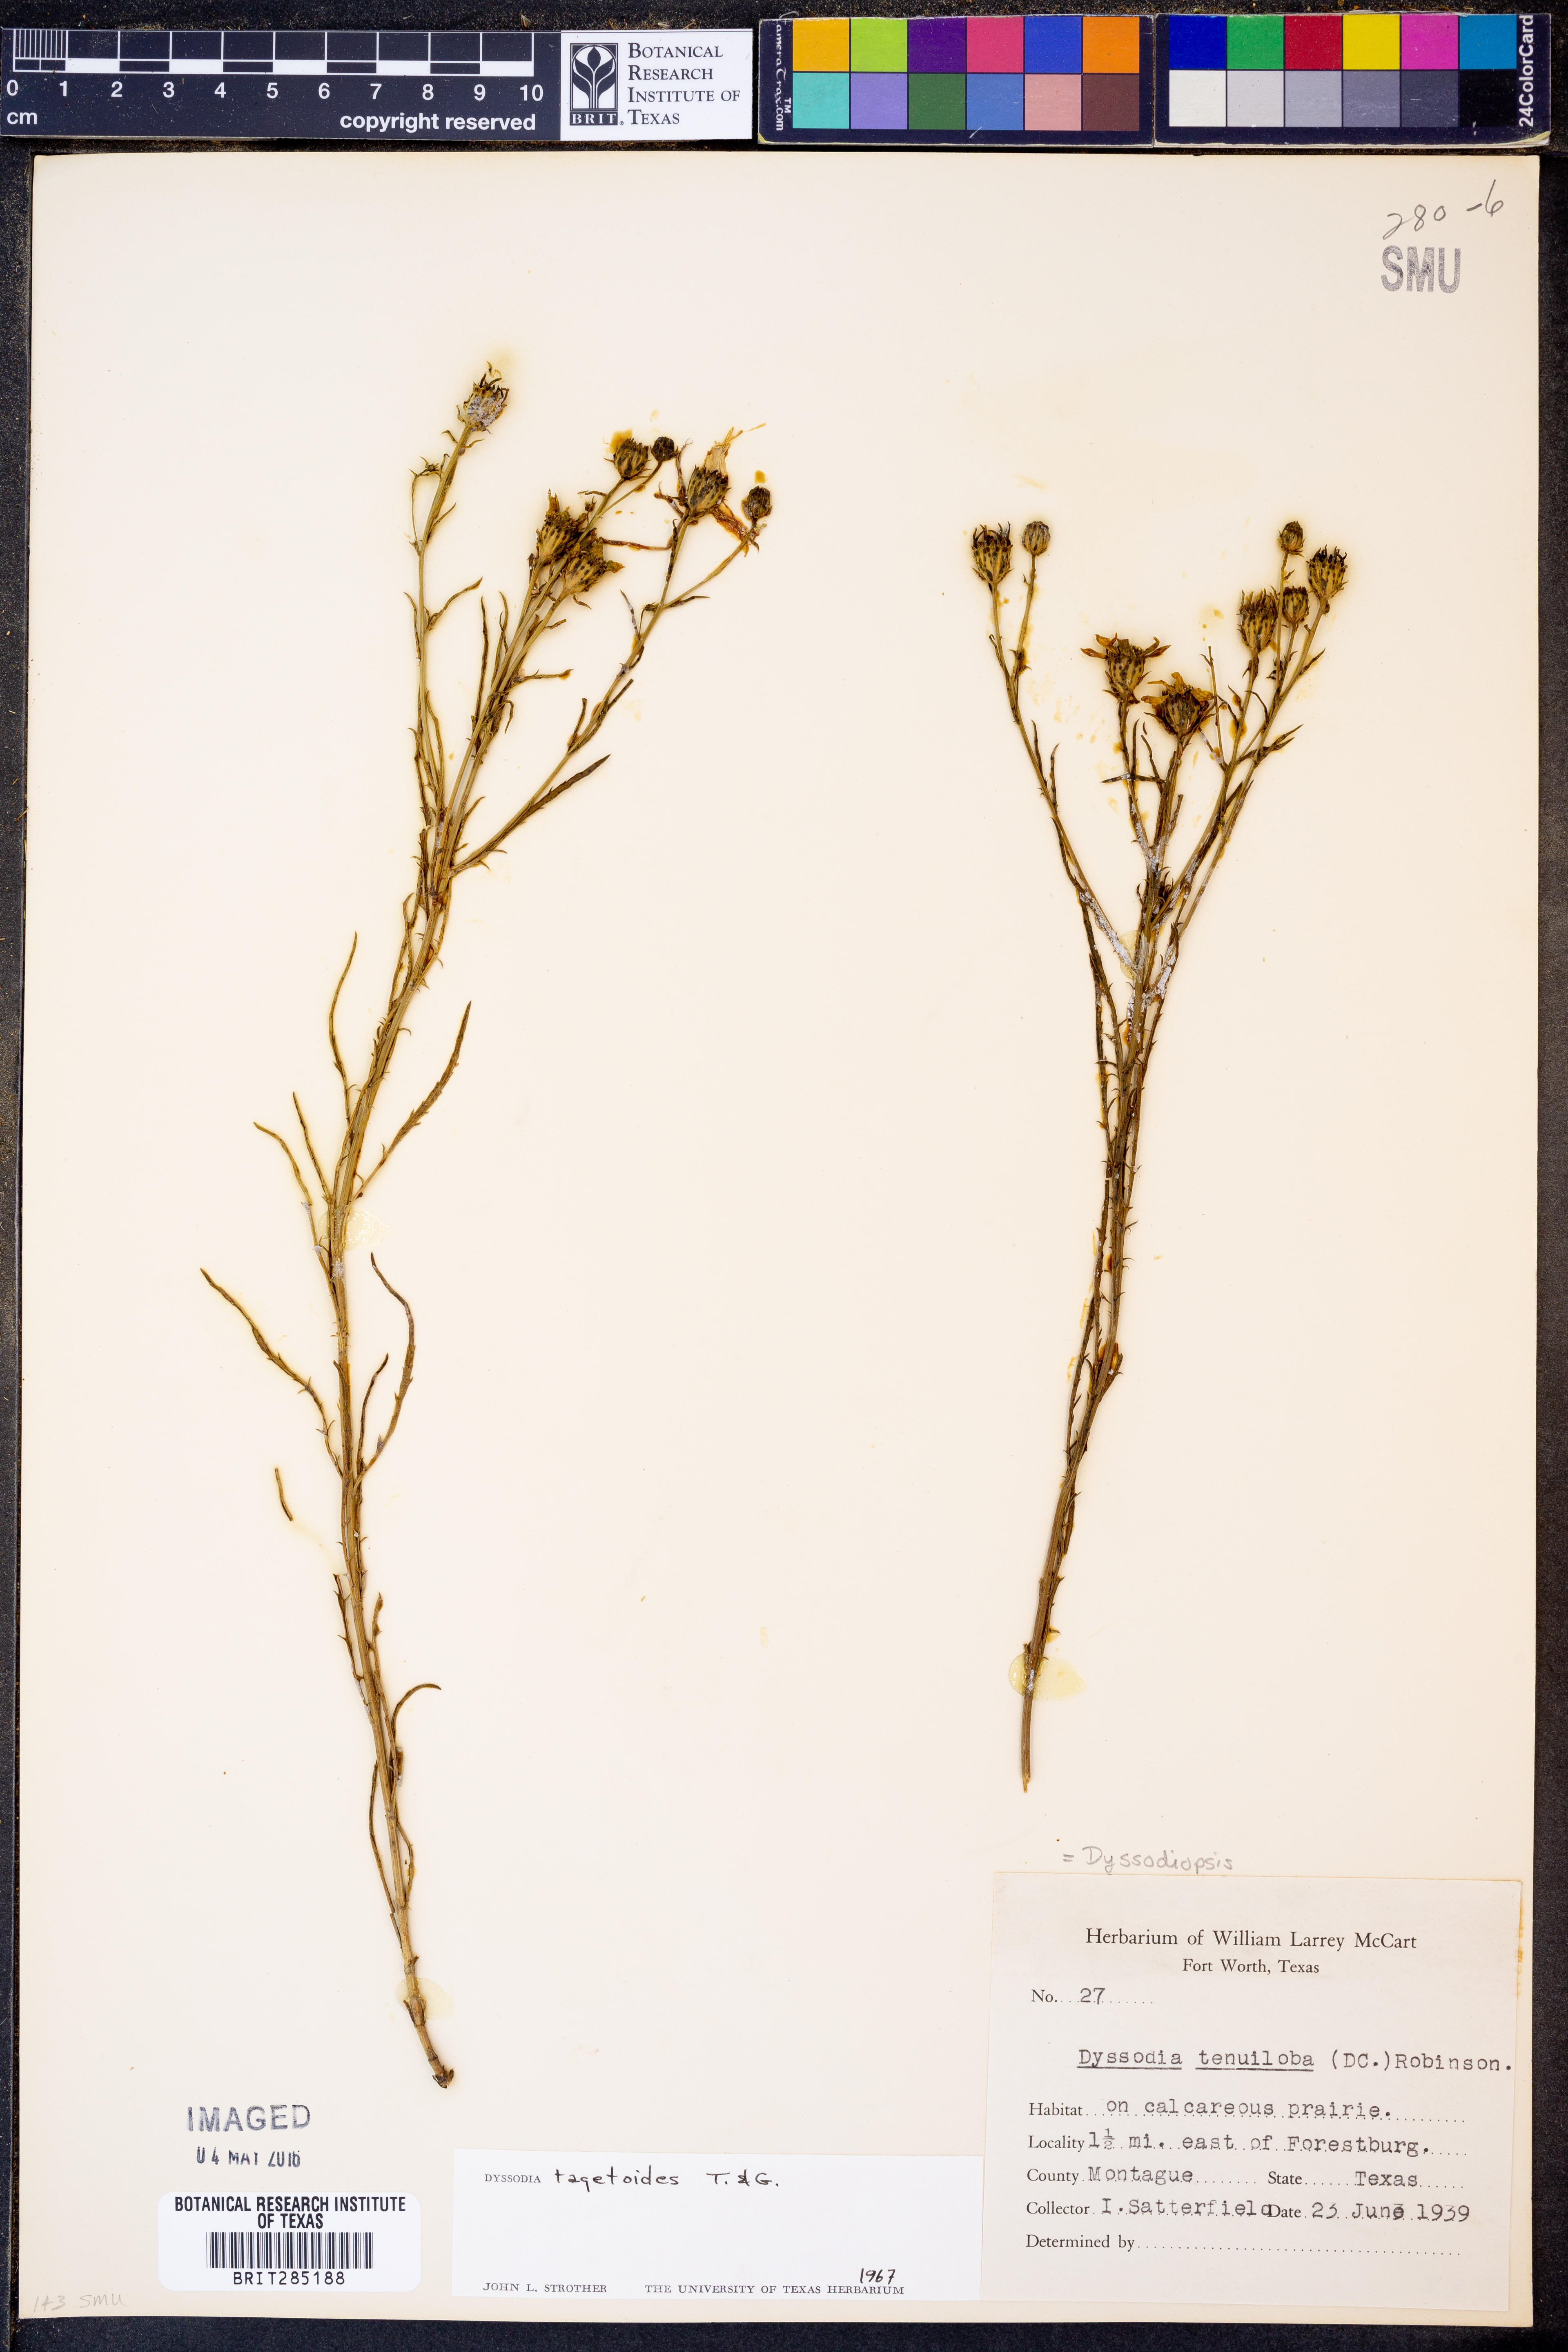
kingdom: Plantae
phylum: Tracheophyta
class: Magnoliopsida
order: Asterales
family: Asteraceae
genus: Dysodiopsis
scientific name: Dysodiopsis tagetoides
